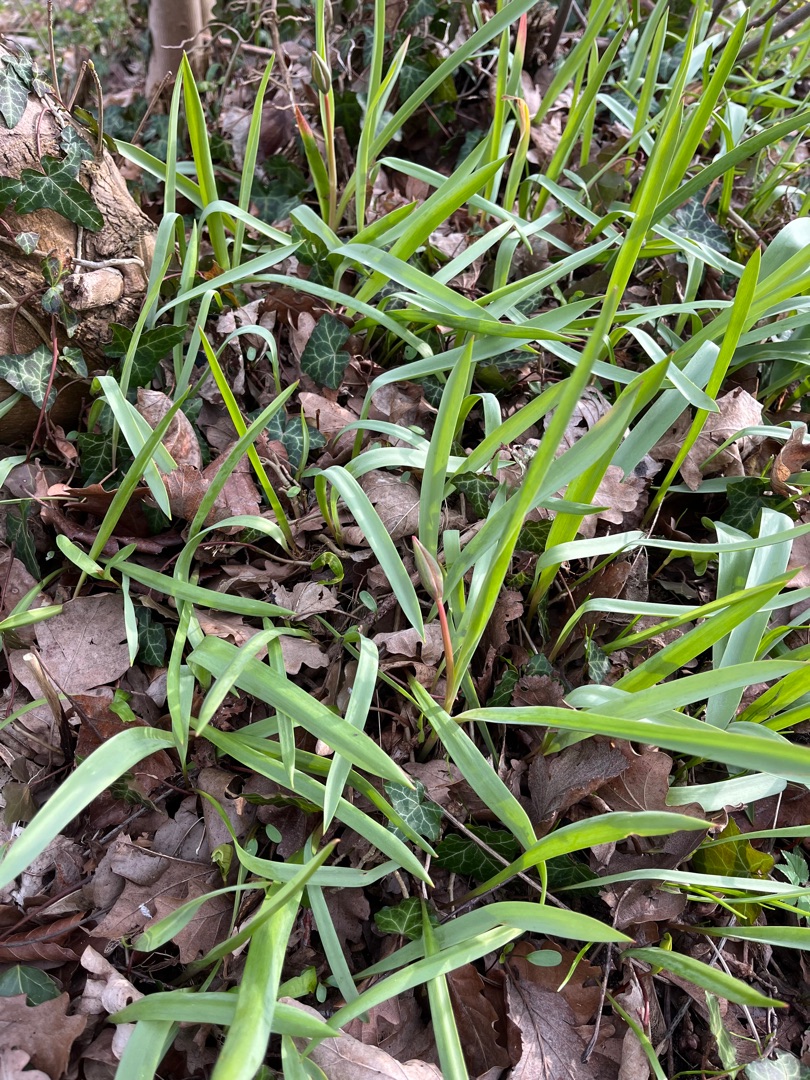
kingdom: Plantae
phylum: Tracheophyta
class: Liliopsida
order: Liliales
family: Liliaceae
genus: Tulipa
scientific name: Tulipa sylvestris
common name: Vild tulipan
